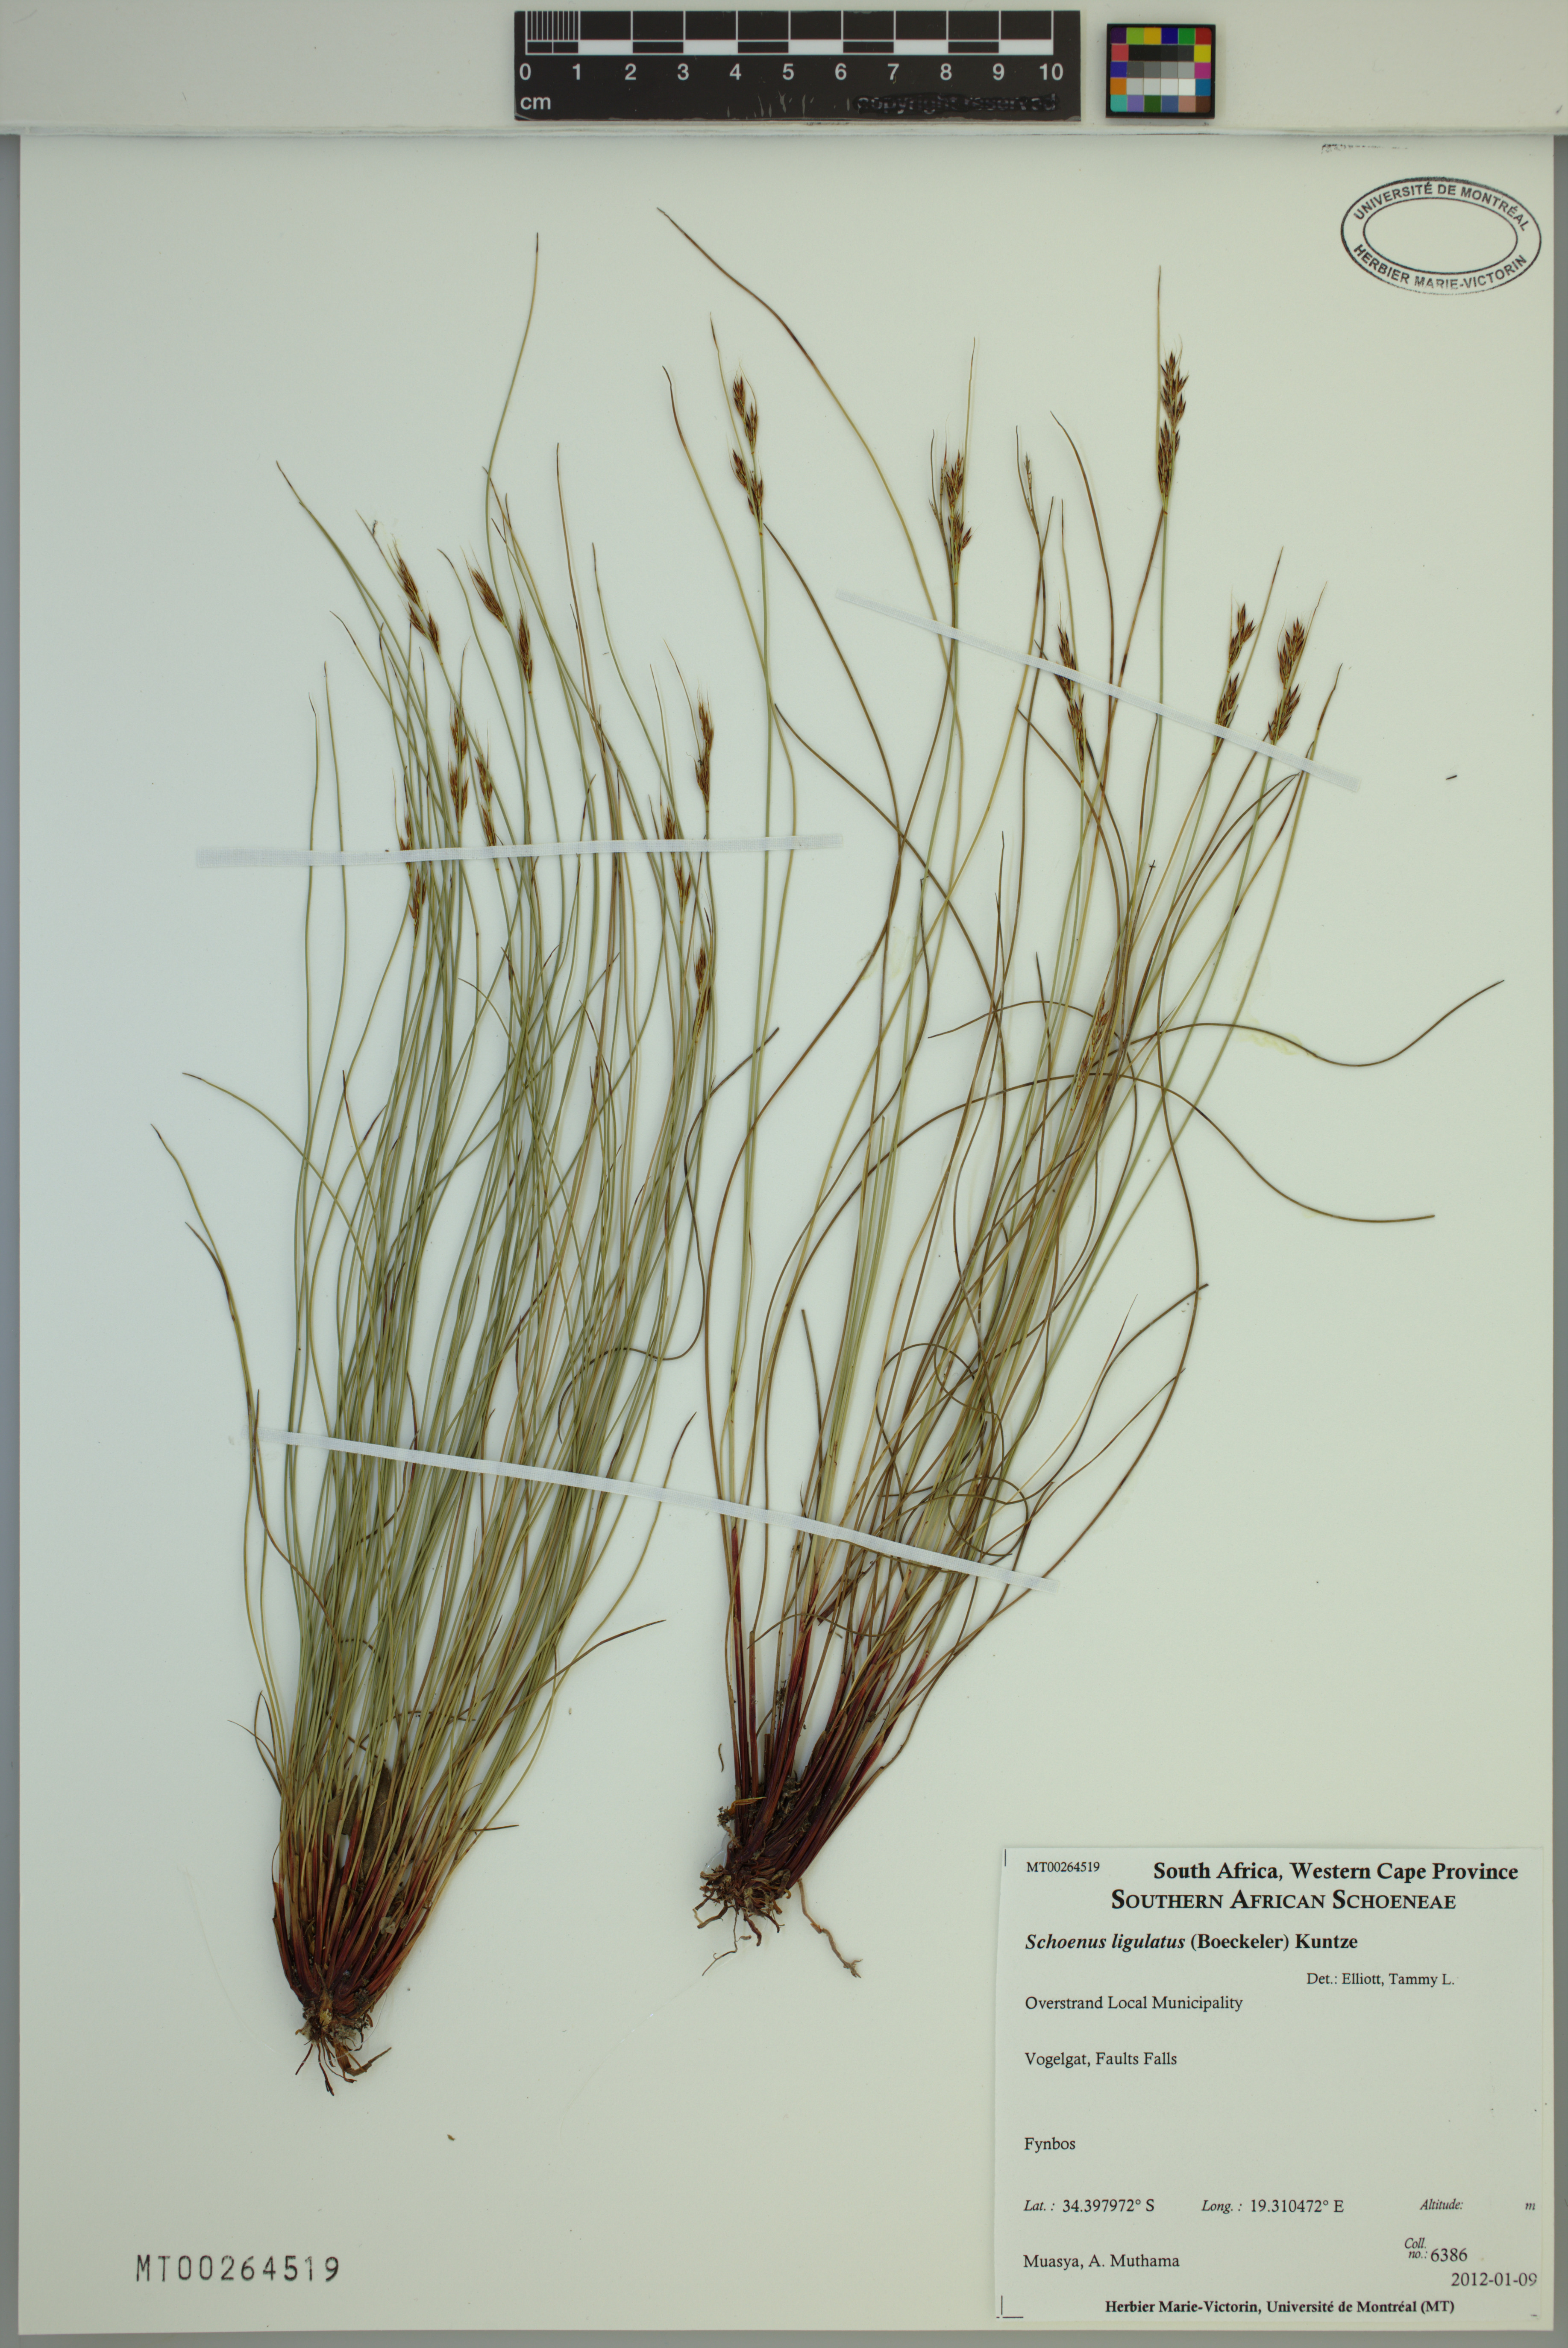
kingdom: Plantae
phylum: Tracheophyta
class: Liliopsida
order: Poales
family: Cyperaceae
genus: Schoenus
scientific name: Schoenus ligulatus
